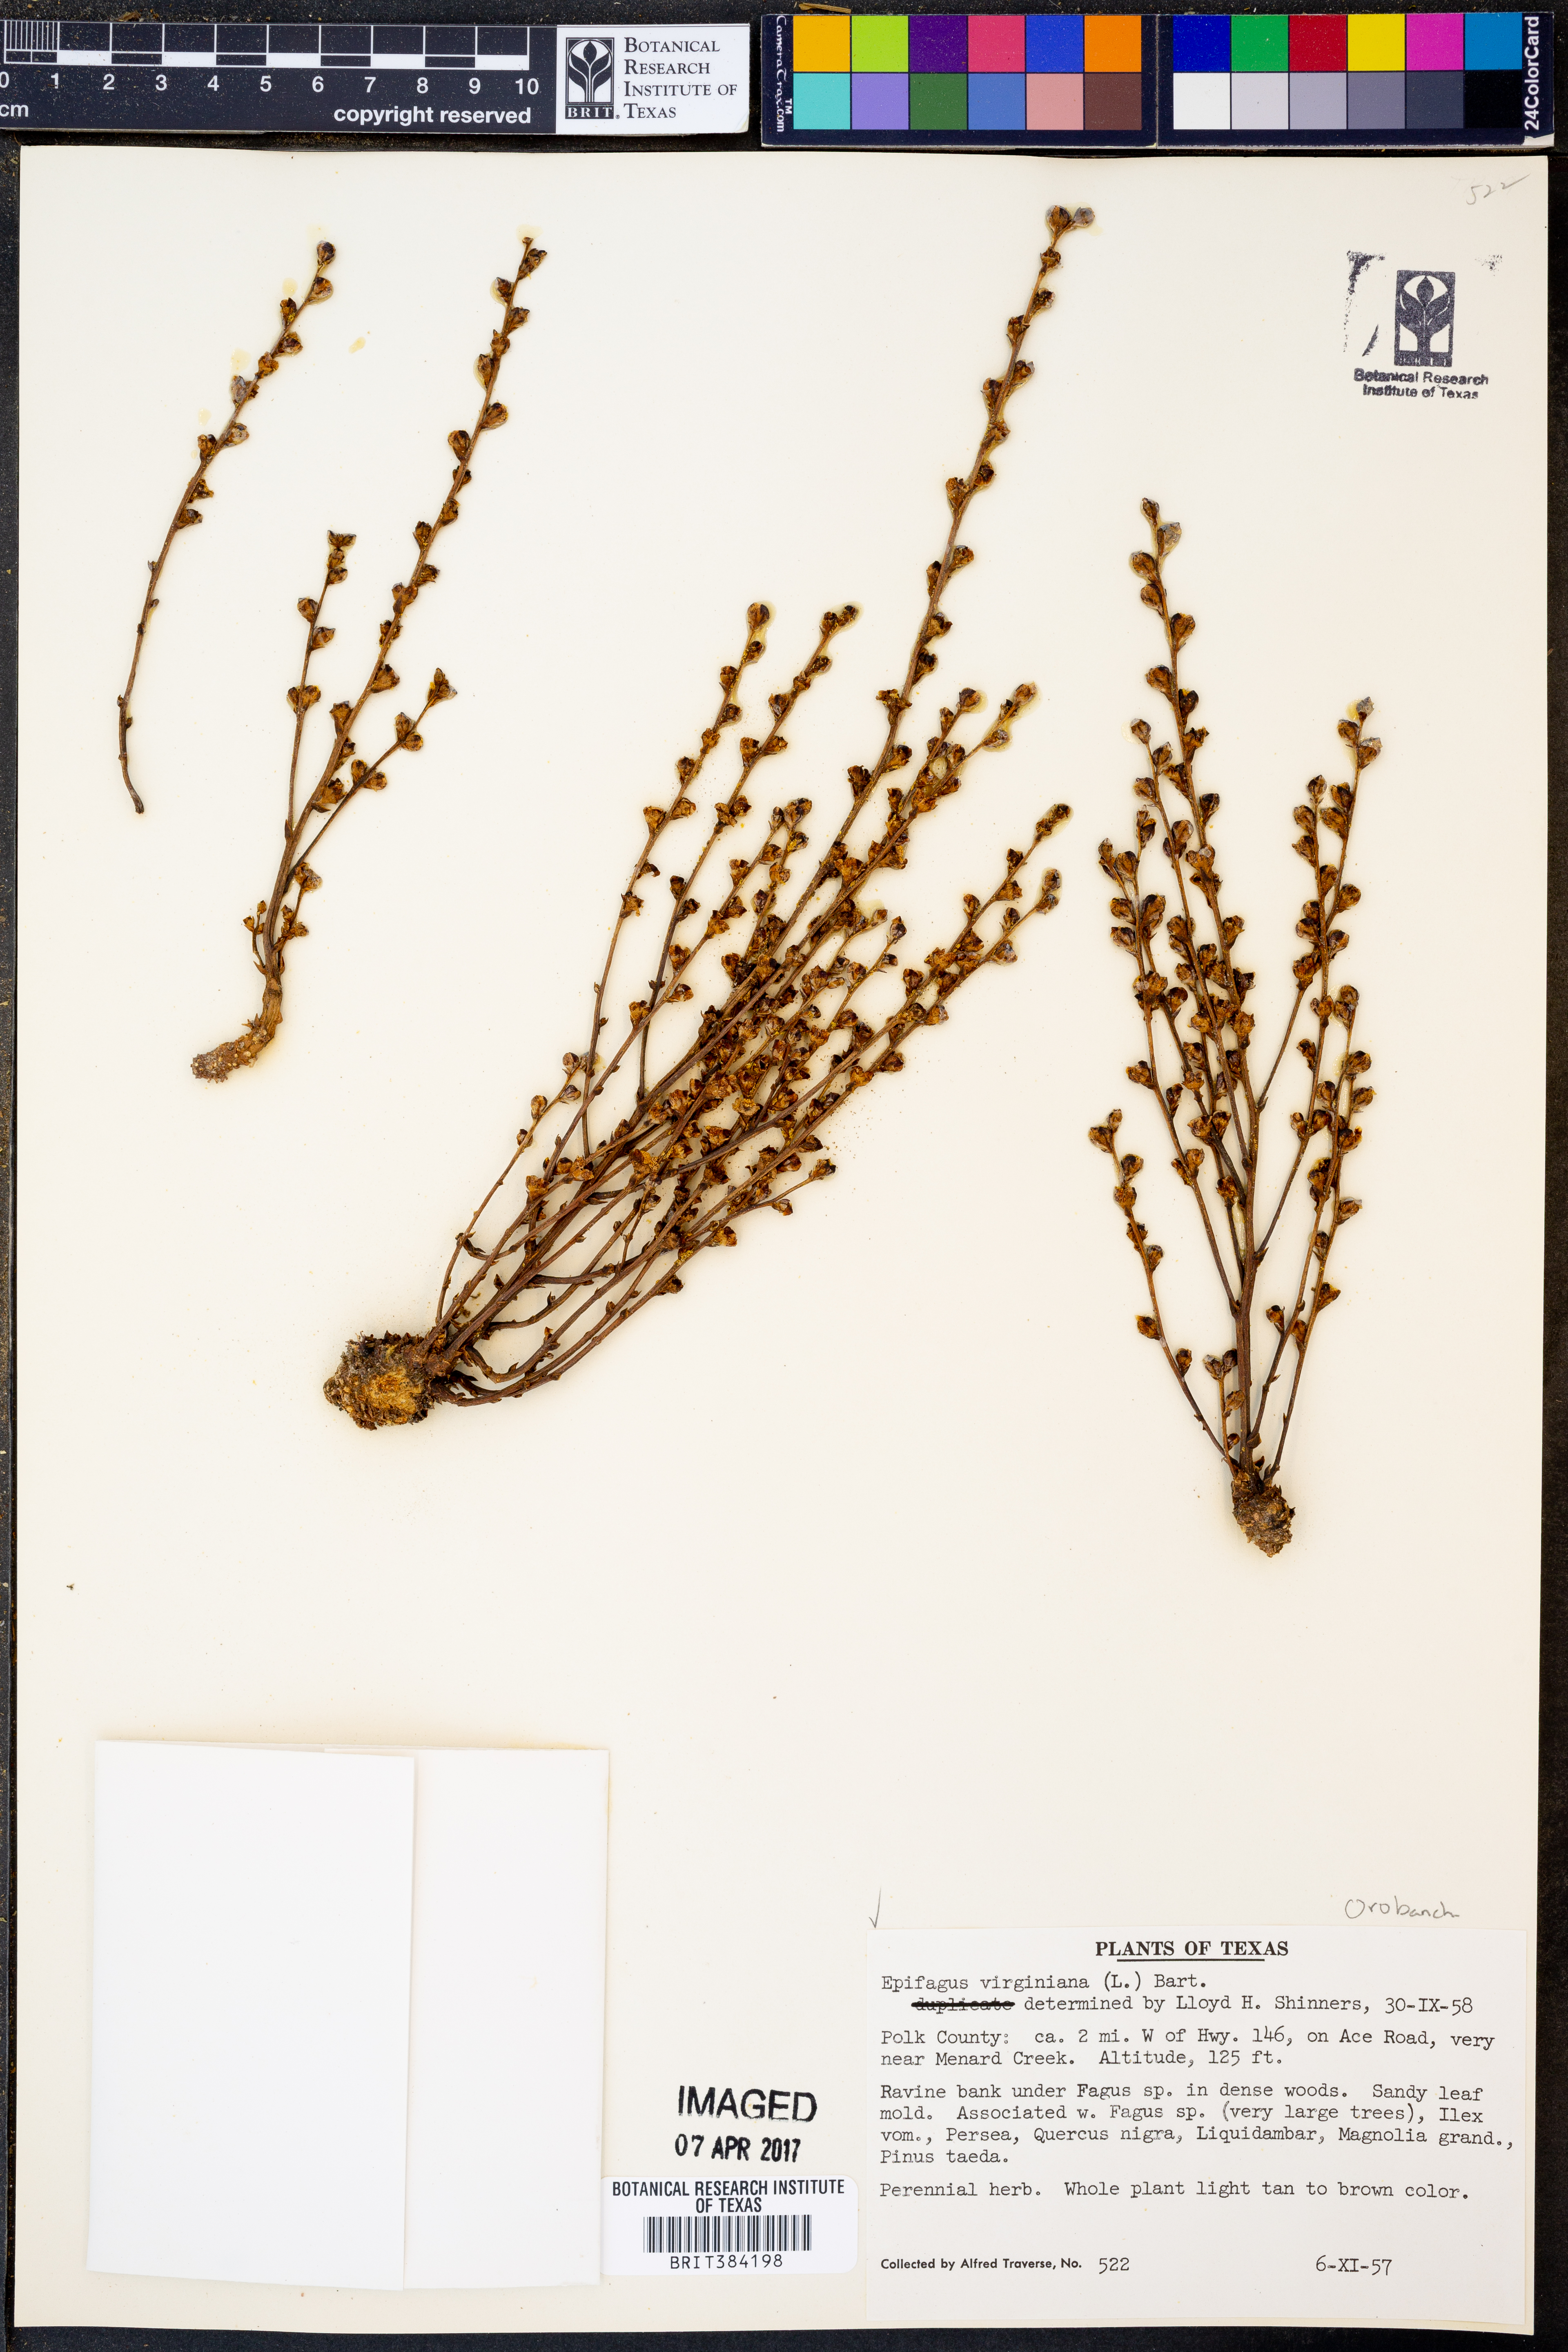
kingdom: Plantae
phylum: Tracheophyta
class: Magnoliopsida
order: Lamiales
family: Orobanchaceae
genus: Epifagus
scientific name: Epifagus virginiana
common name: Beechdrops
